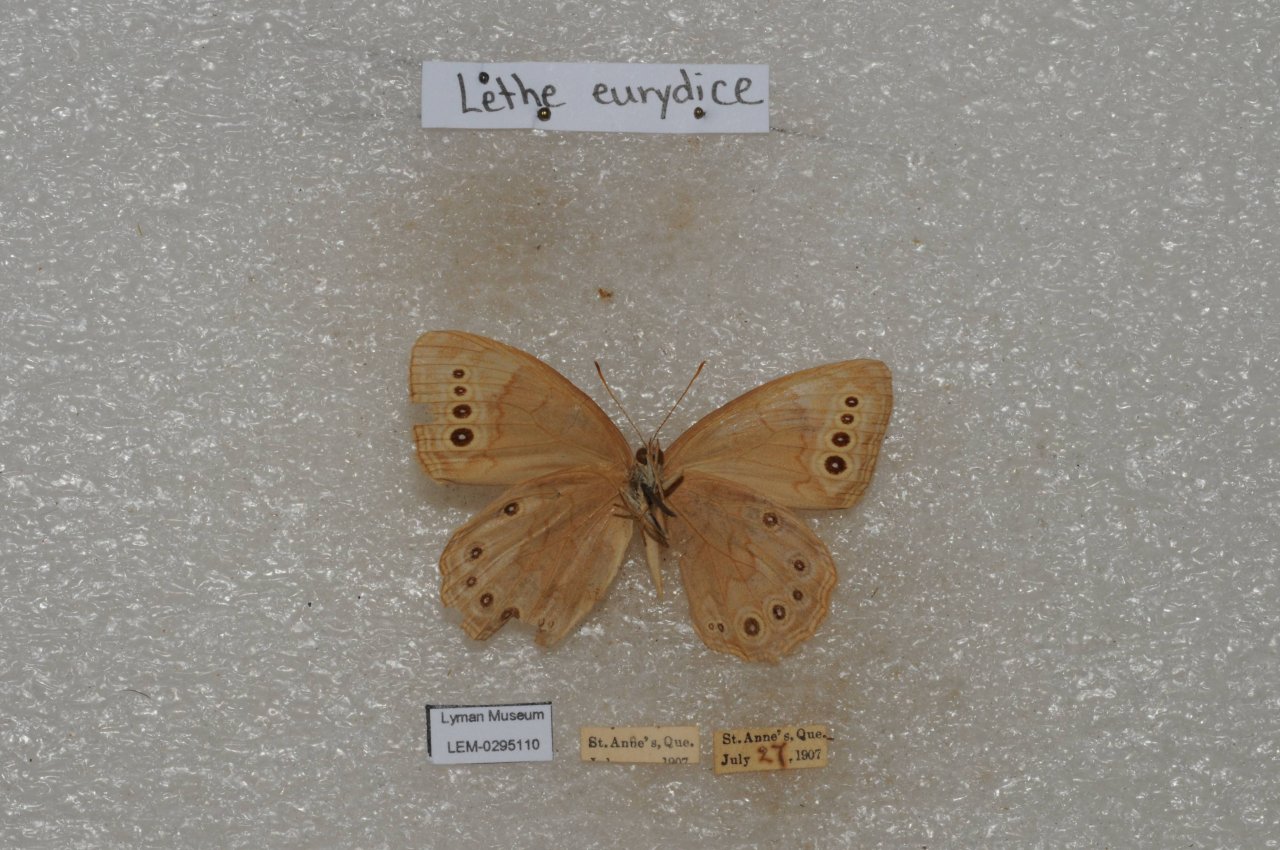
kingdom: Animalia
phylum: Arthropoda
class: Insecta
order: Lepidoptera
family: Nymphalidae
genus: Lethe
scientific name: Lethe eurydice
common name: Eyed Brown
